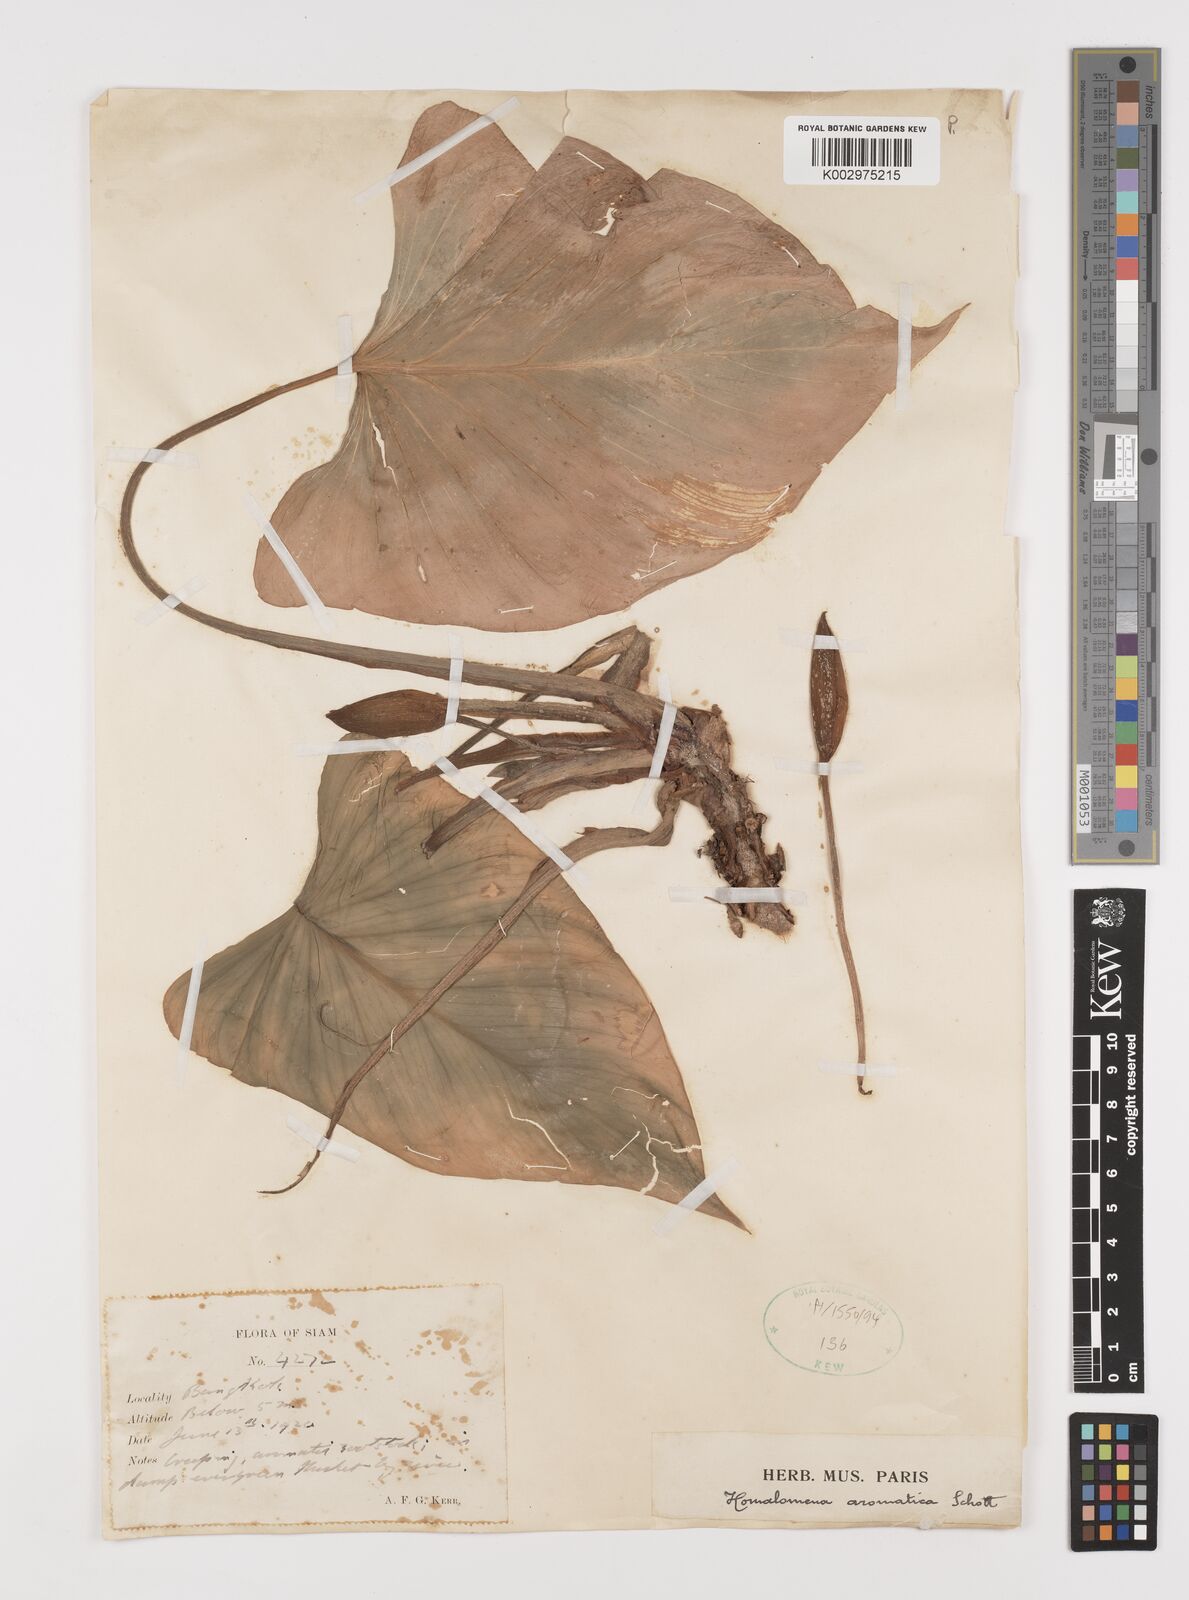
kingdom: Plantae
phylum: Tracheophyta
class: Liliopsida
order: Alismatales
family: Araceae
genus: Homalomena
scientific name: Homalomena aromatica
